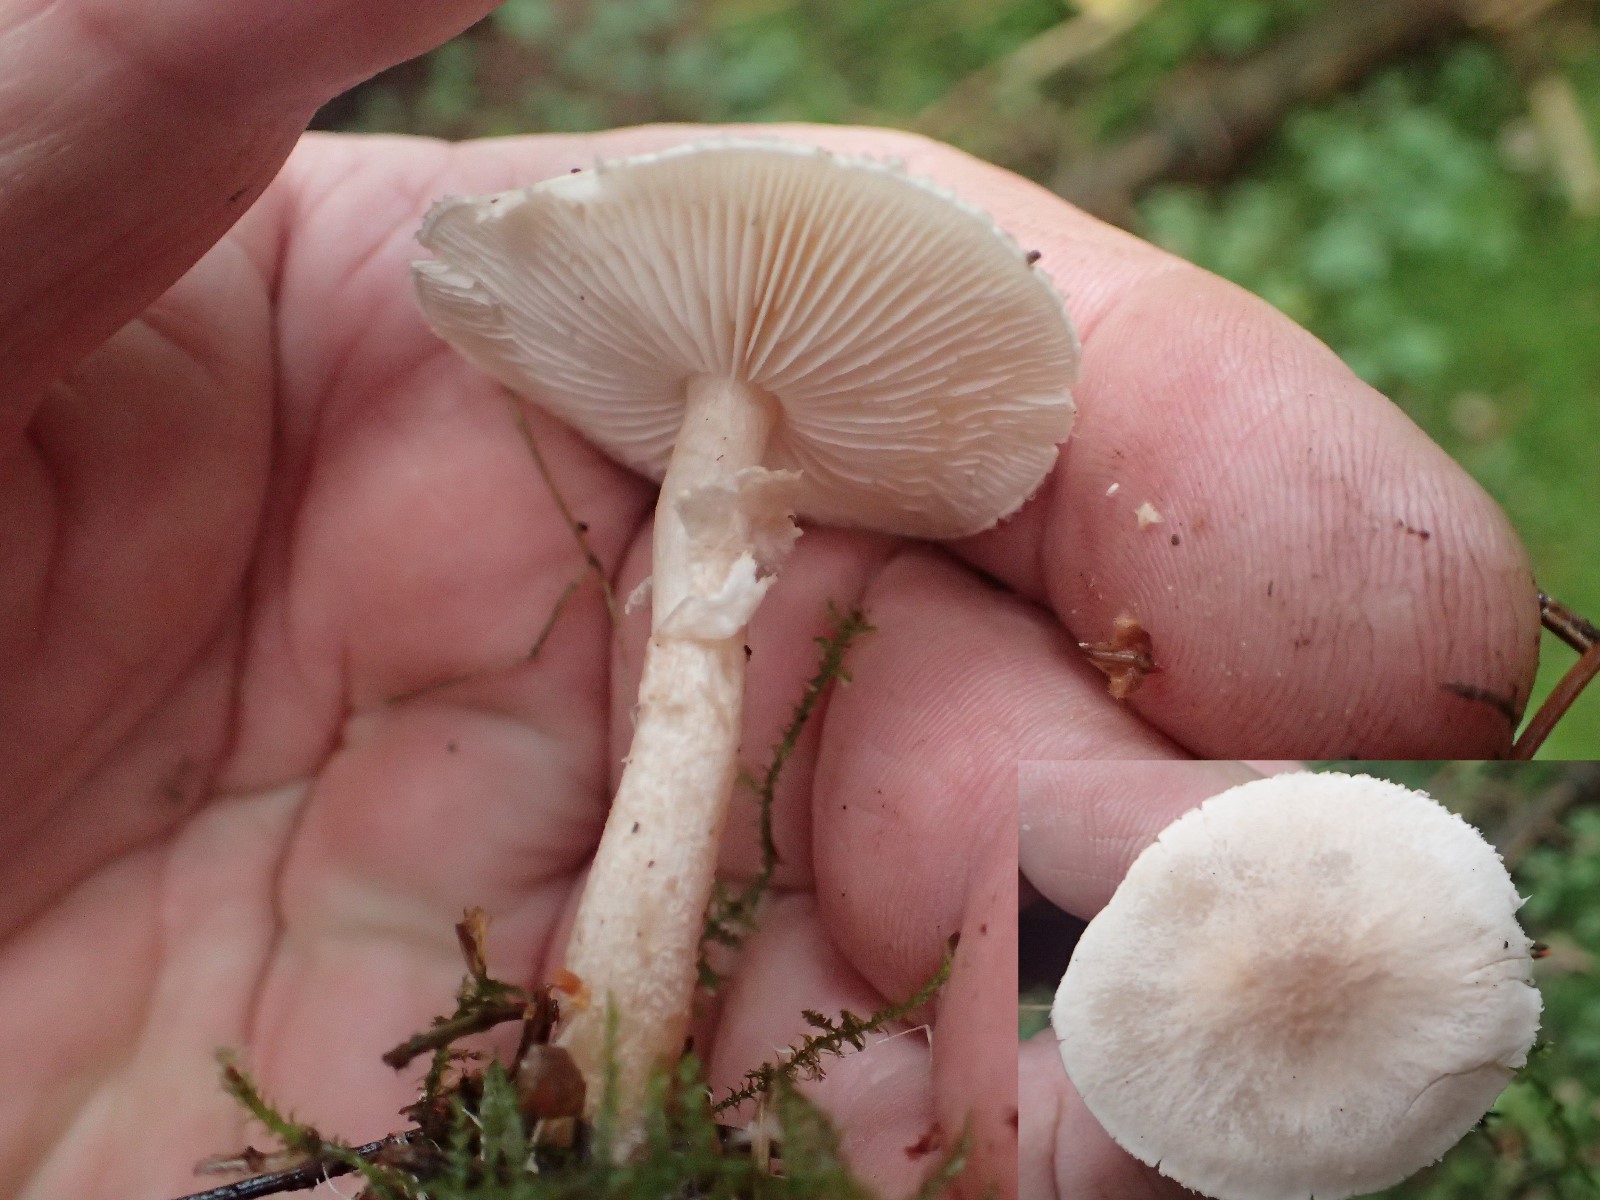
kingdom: Fungi
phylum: Basidiomycota
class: Agaricomycetes
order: Agaricales
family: Tricholomataceae
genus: Cystoderma
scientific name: Cystoderma carcharias
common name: rødgrå grynhat
